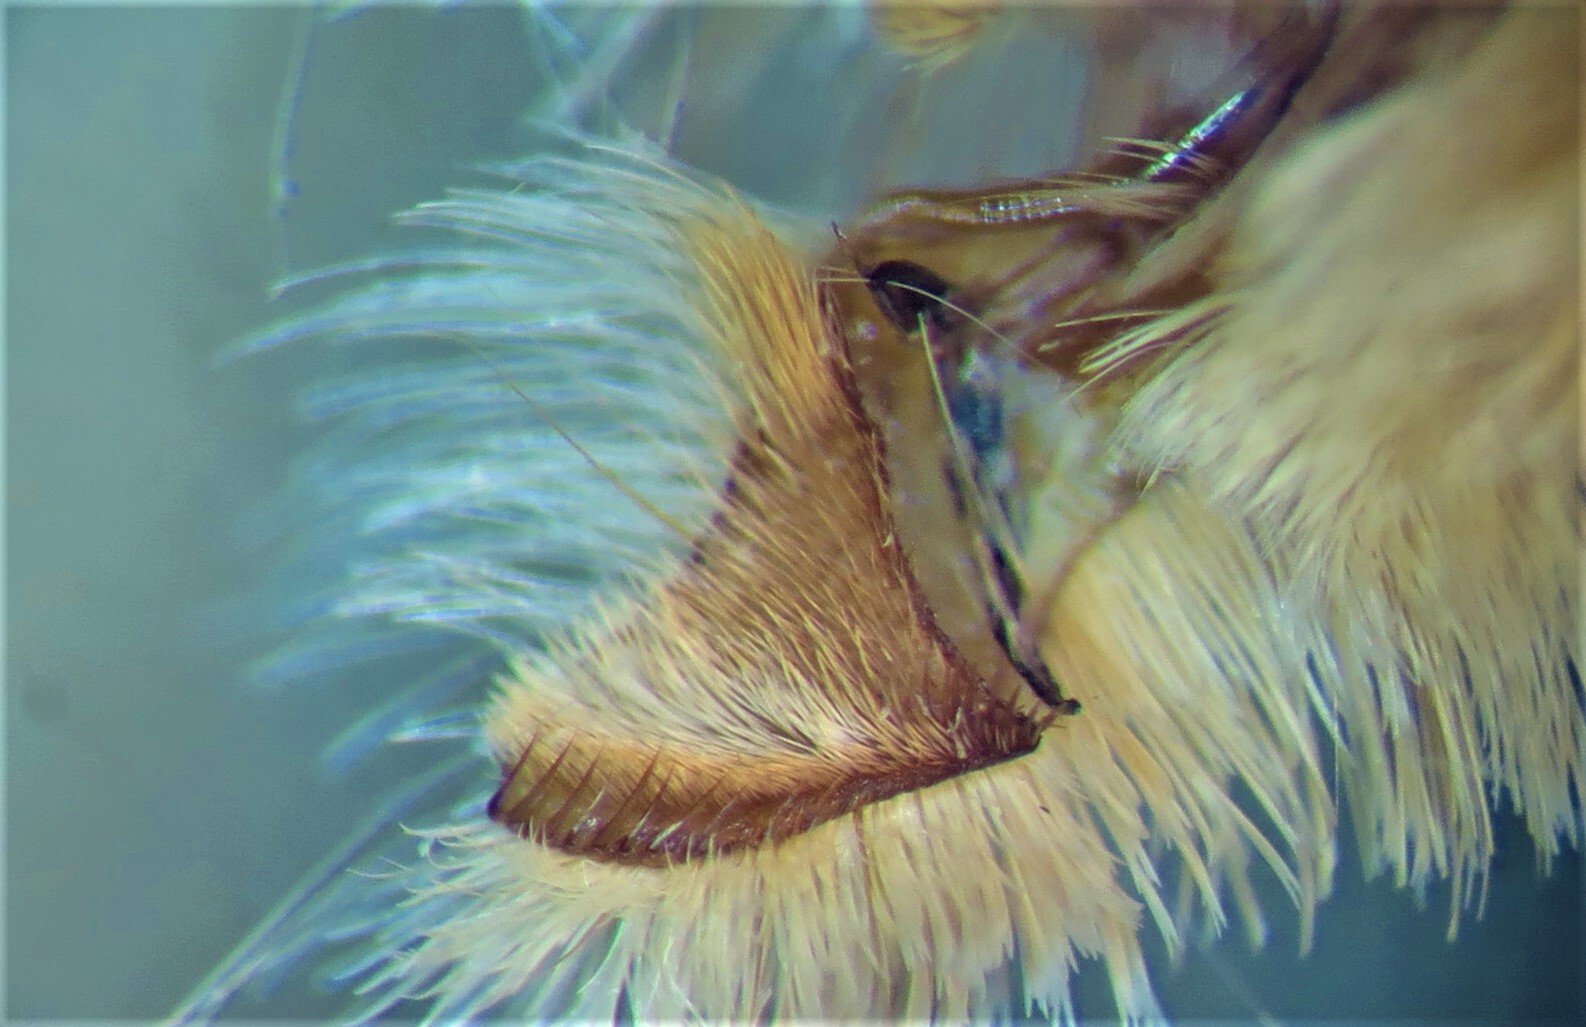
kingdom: Animalia
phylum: Arthropoda
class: Insecta
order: Lepidoptera
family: Noctuidae
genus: Amphipoea
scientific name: Amphipoea lucens
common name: Large ear
